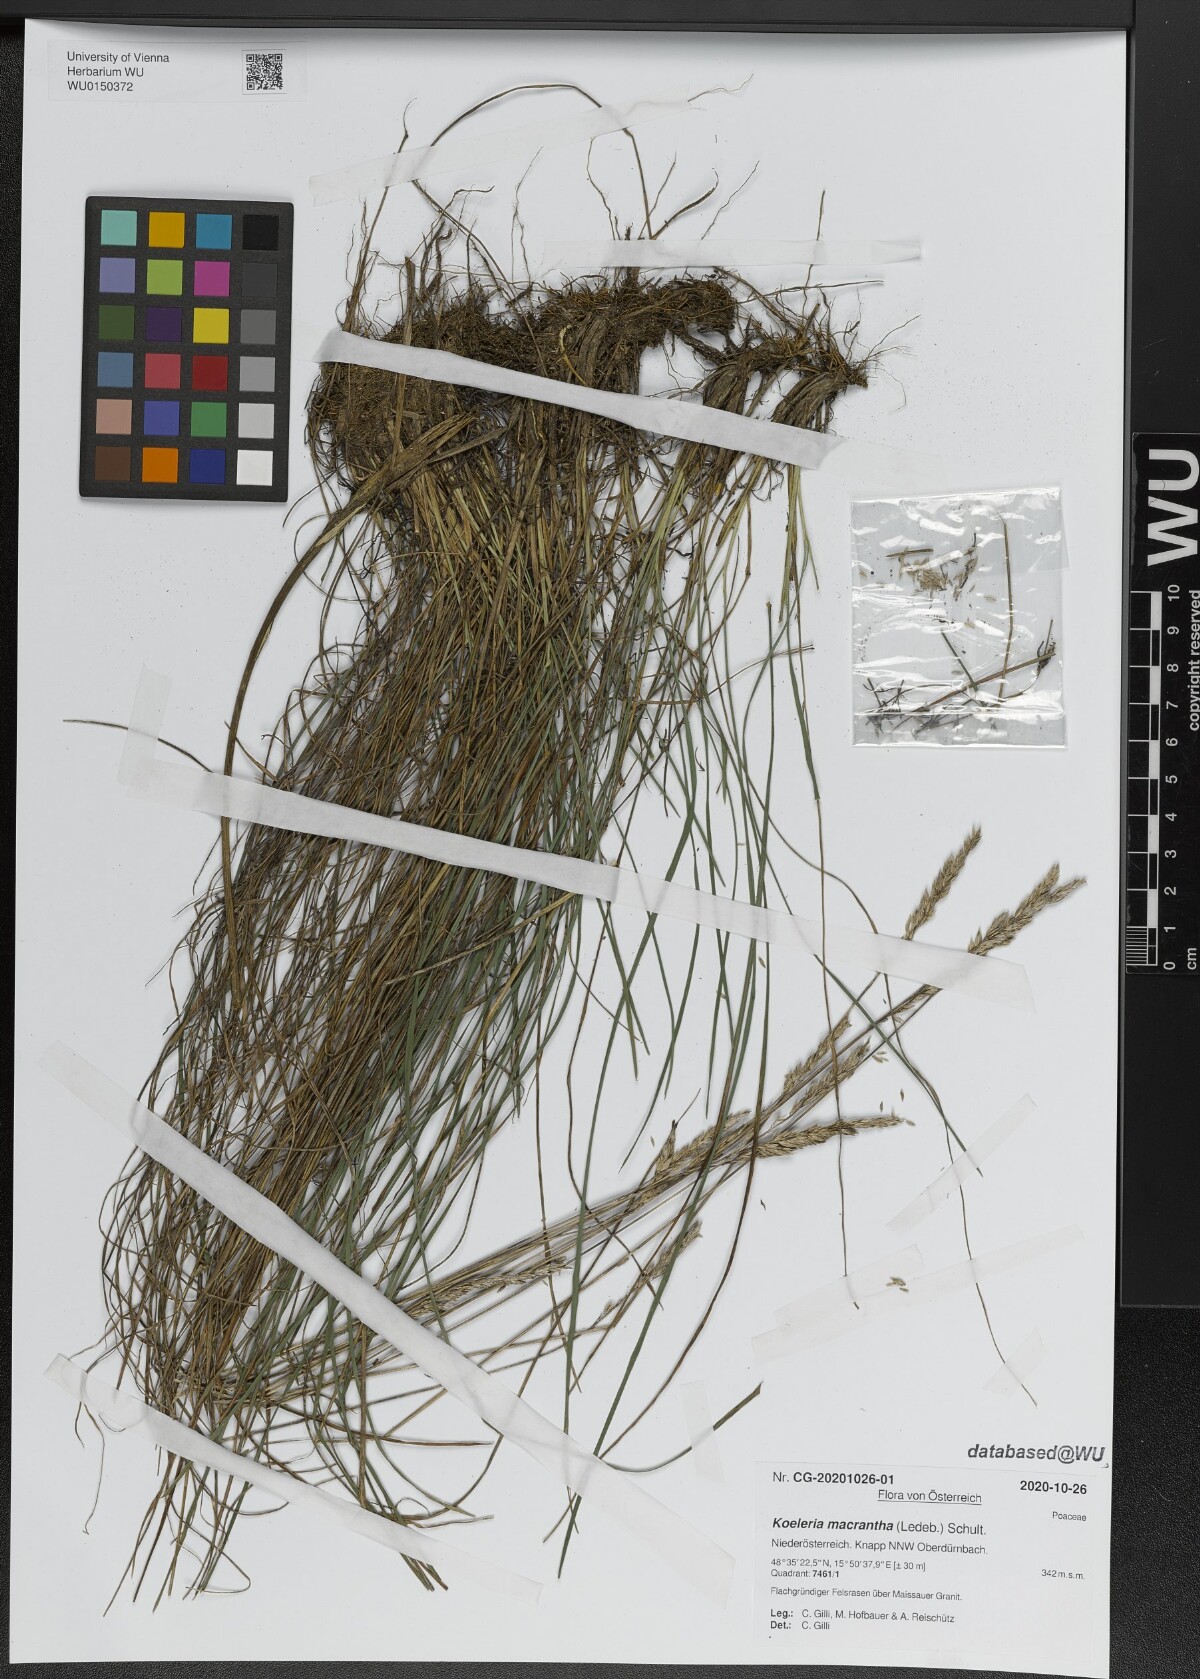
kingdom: Plantae
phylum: Tracheophyta
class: Liliopsida
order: Poales
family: Poaceae
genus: Koeleria
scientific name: Koeleria macrantha
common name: Crested hair-grass
